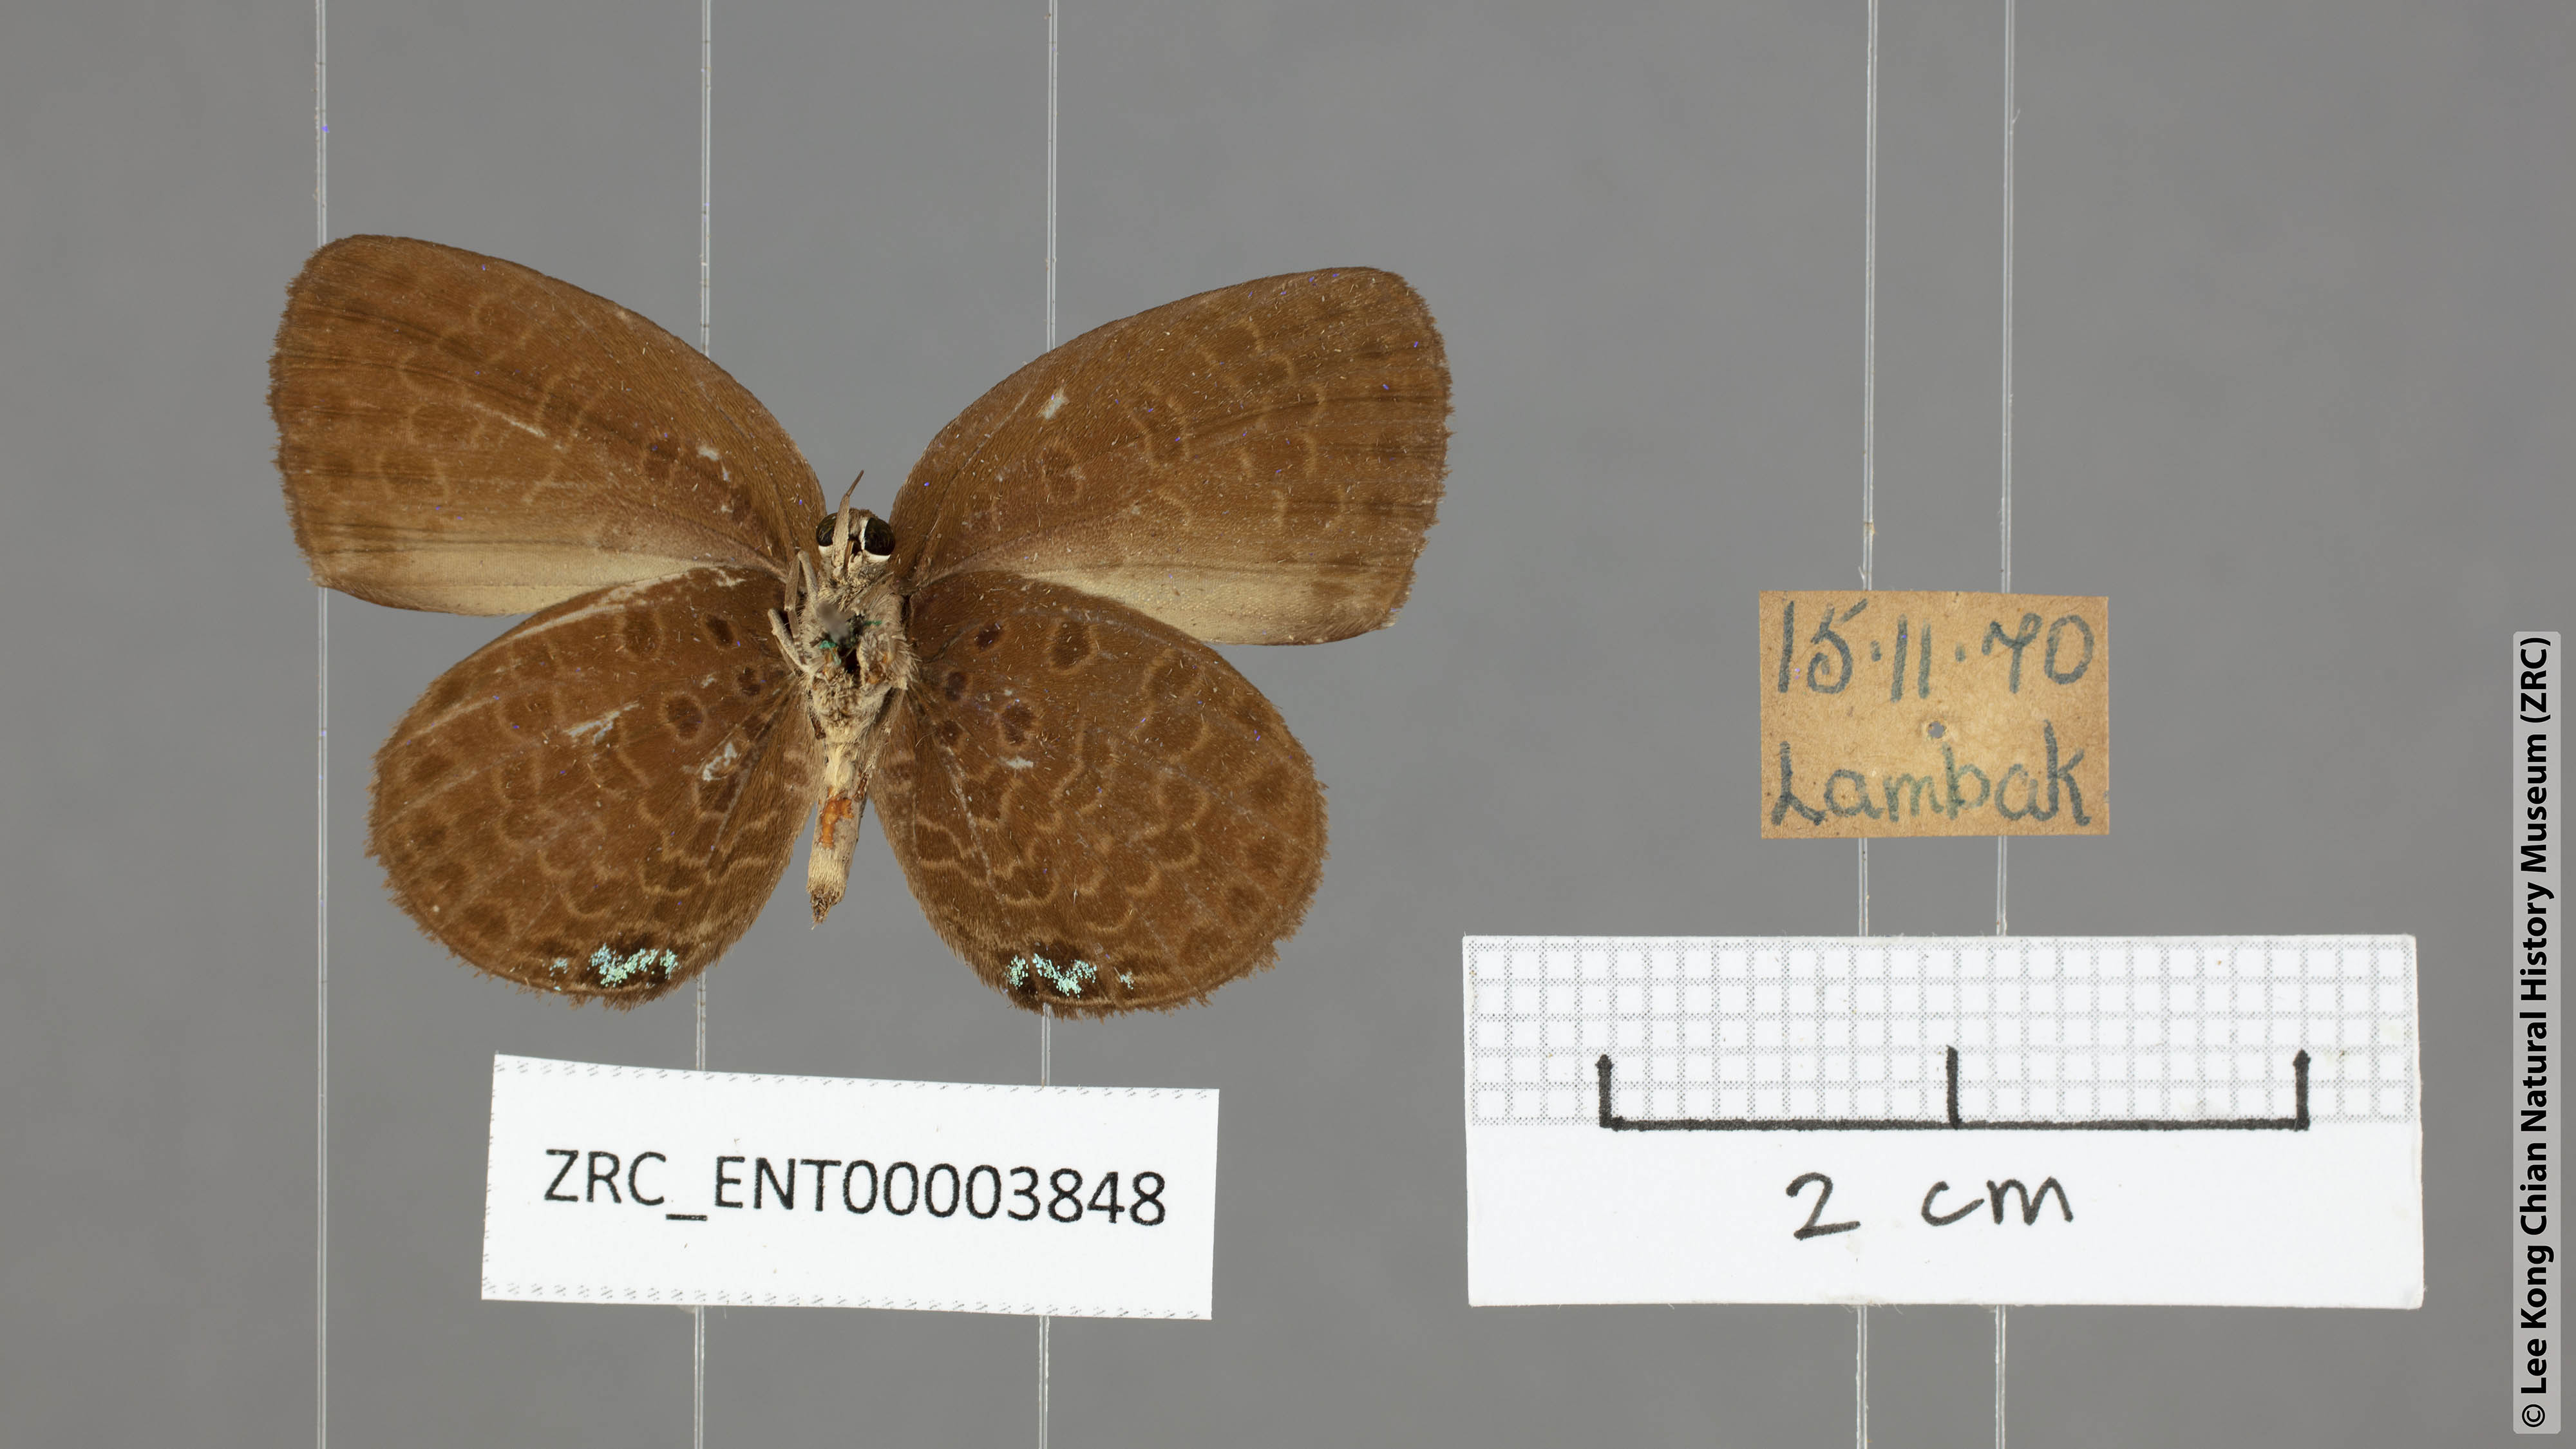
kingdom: Animalia
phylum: Arthropoda
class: Insecta
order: Lepidoptera
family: Lycaenidae
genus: Arhopala
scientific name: Arhopala antimuta
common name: Small tailless oakblue
